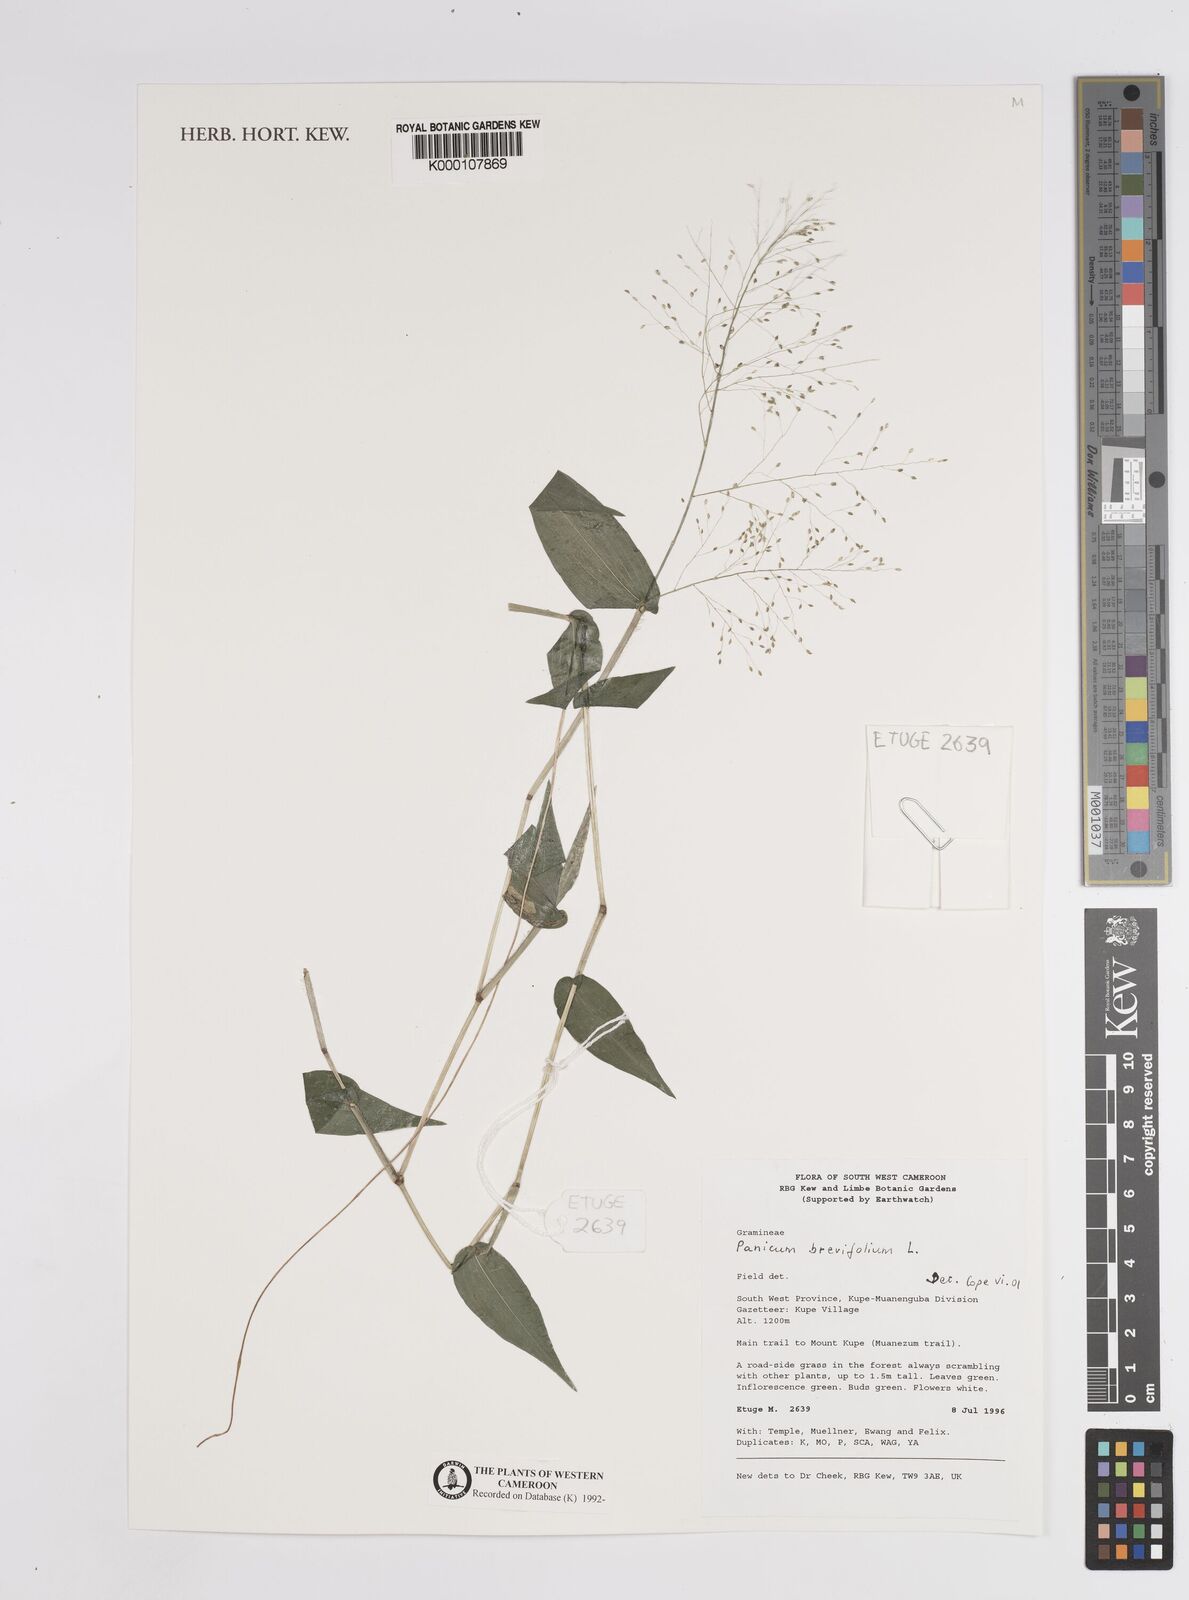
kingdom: Plantae
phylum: Tracheophyta
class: Liliopsida
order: Poales
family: Poaceae
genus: Panicum
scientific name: Panicum brevifolium
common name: Shortleaf panic grass
